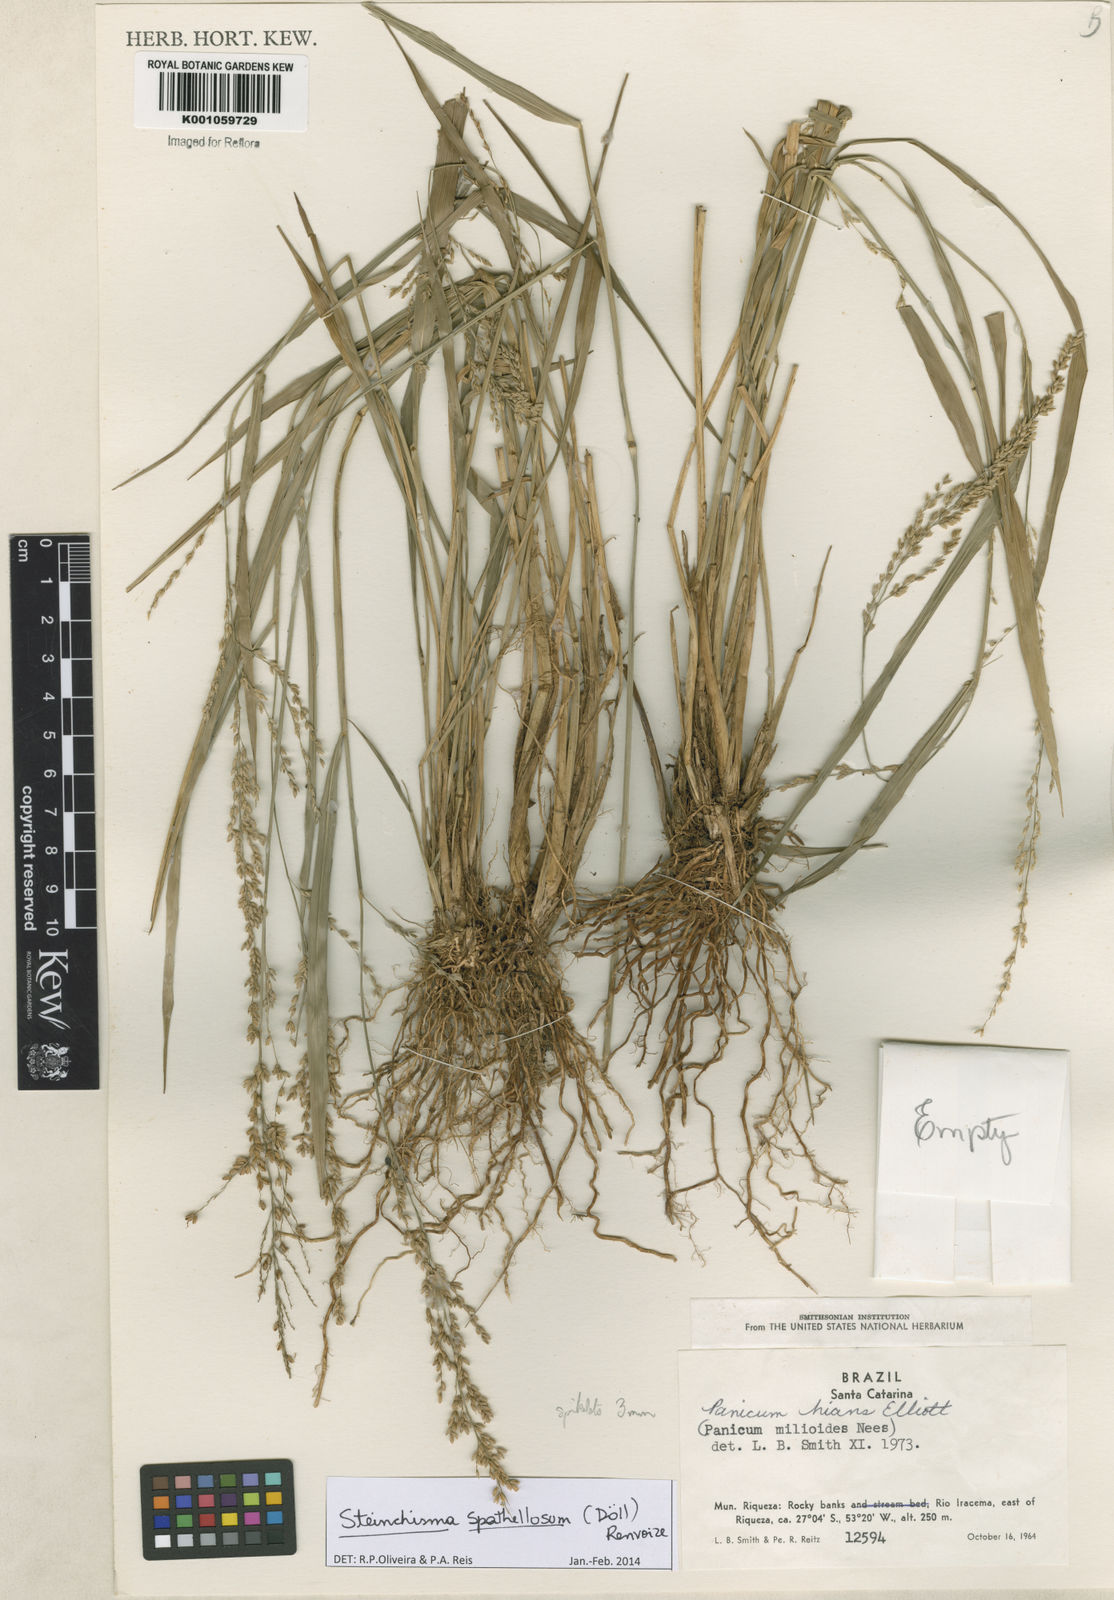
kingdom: Plantae
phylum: Tracheophyta
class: Liliopsida
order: Poales
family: Poaceae
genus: Steinchisma
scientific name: Steinchisma
